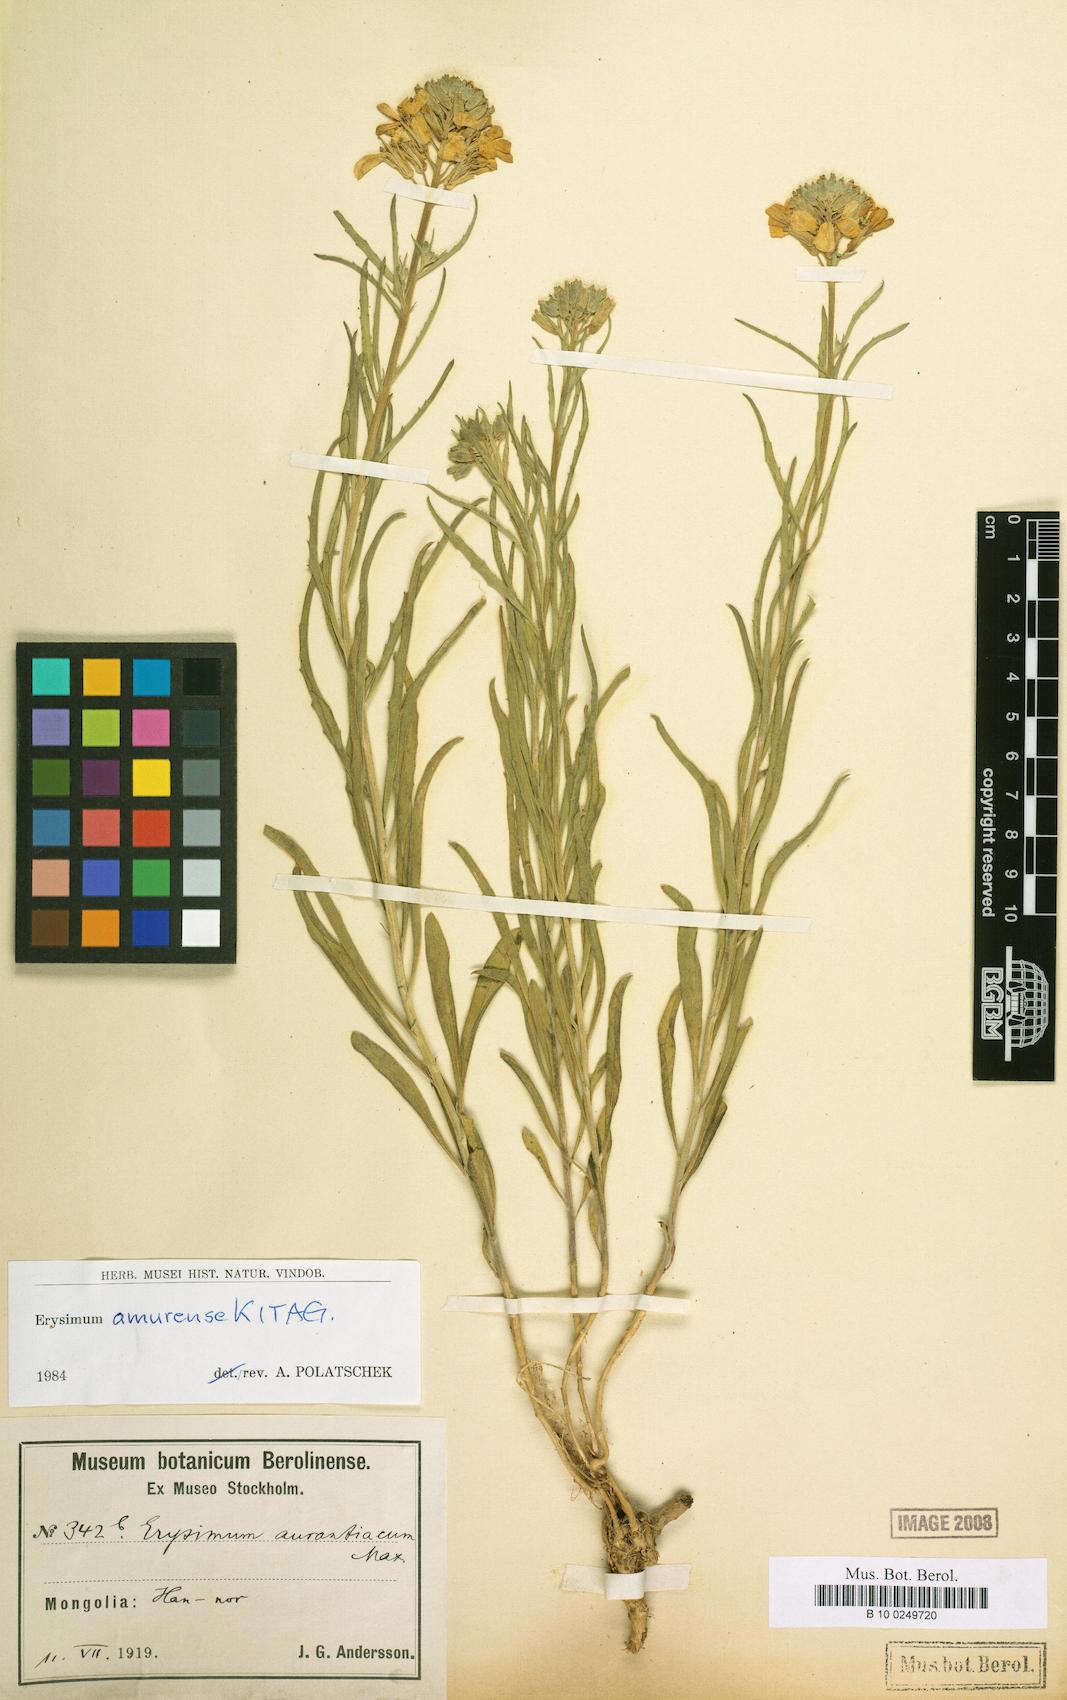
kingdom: Plantae
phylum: Tracheophyta
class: Magnoliopsida
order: Brassicales
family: Brassicaceae
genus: Erysimum
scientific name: Erysimum amurense
